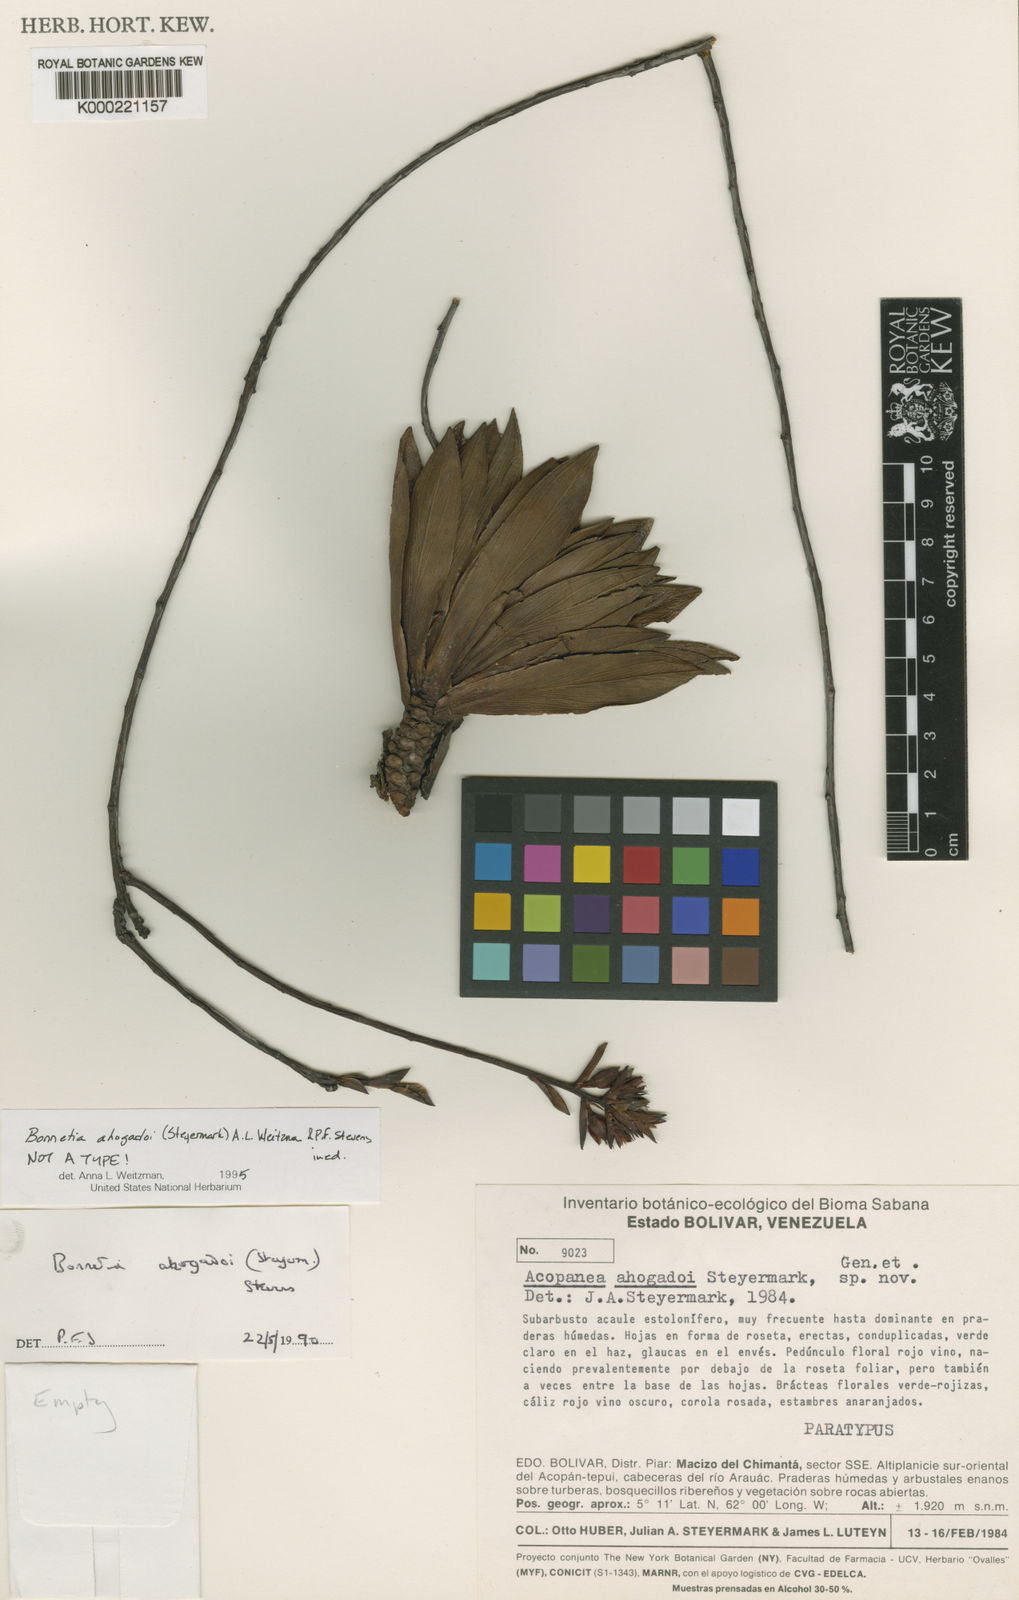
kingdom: Plantae
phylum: Tracheophyta
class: Magnoliopsida
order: Malpighiales
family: Bonnetiaceae
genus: Bonnetia
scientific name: Bonnetia ahogadoi
